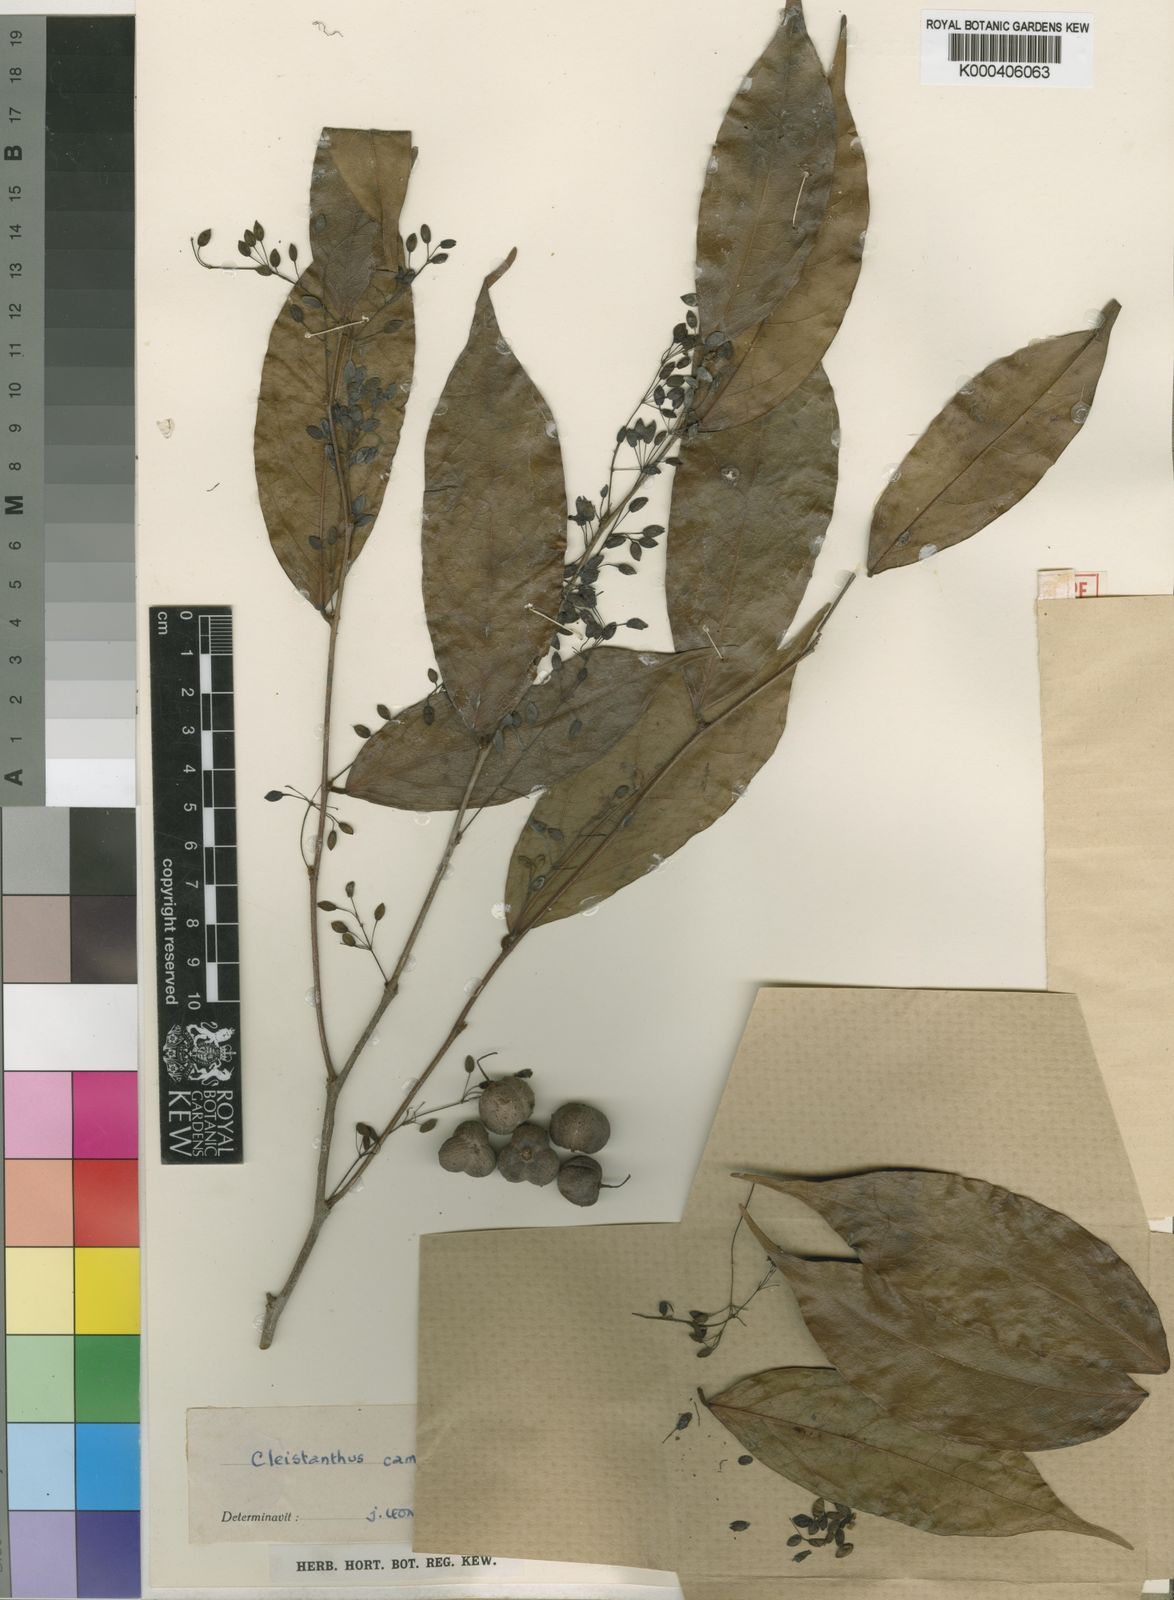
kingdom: Plantae
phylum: Tracheophyta
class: Magnoliopsida
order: Malpighiales
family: Phyllanthaceae
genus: Cleistanthus
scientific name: Cleistanthus
